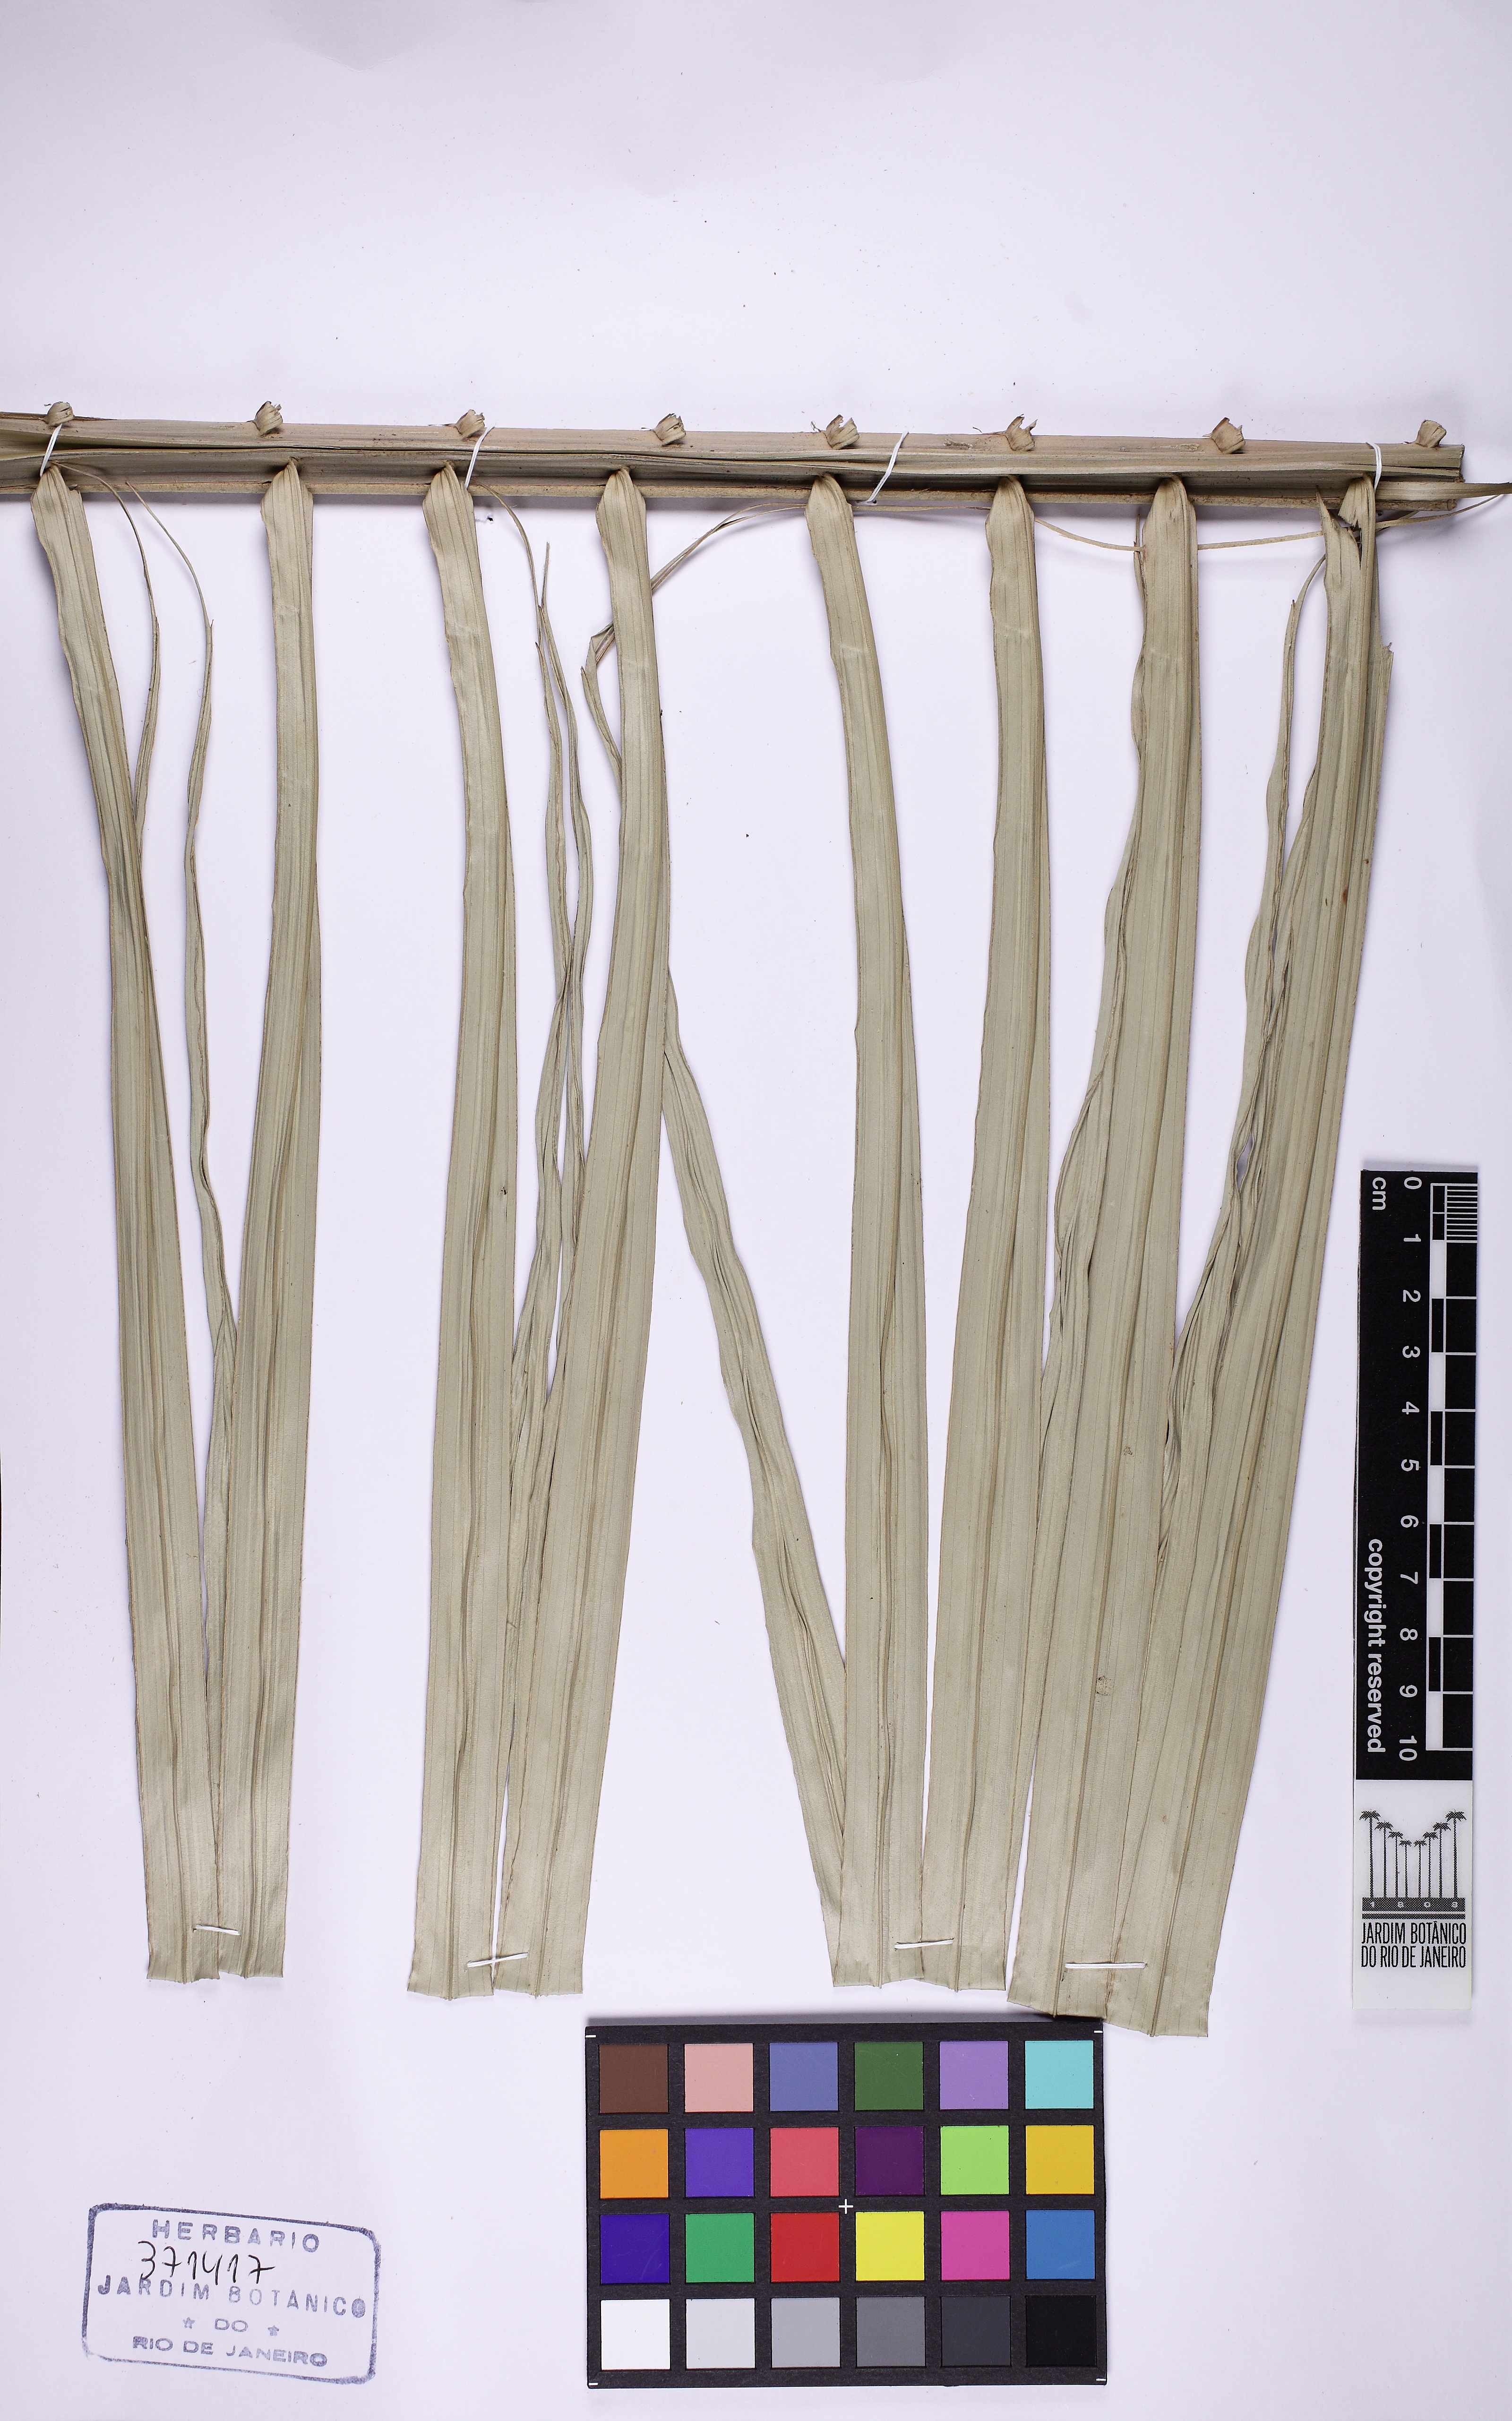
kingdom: Plantae
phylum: Tracheophyta
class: Liliopsida
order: Arecales
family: Arecaceae
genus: Attalea
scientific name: Attalea humilis
